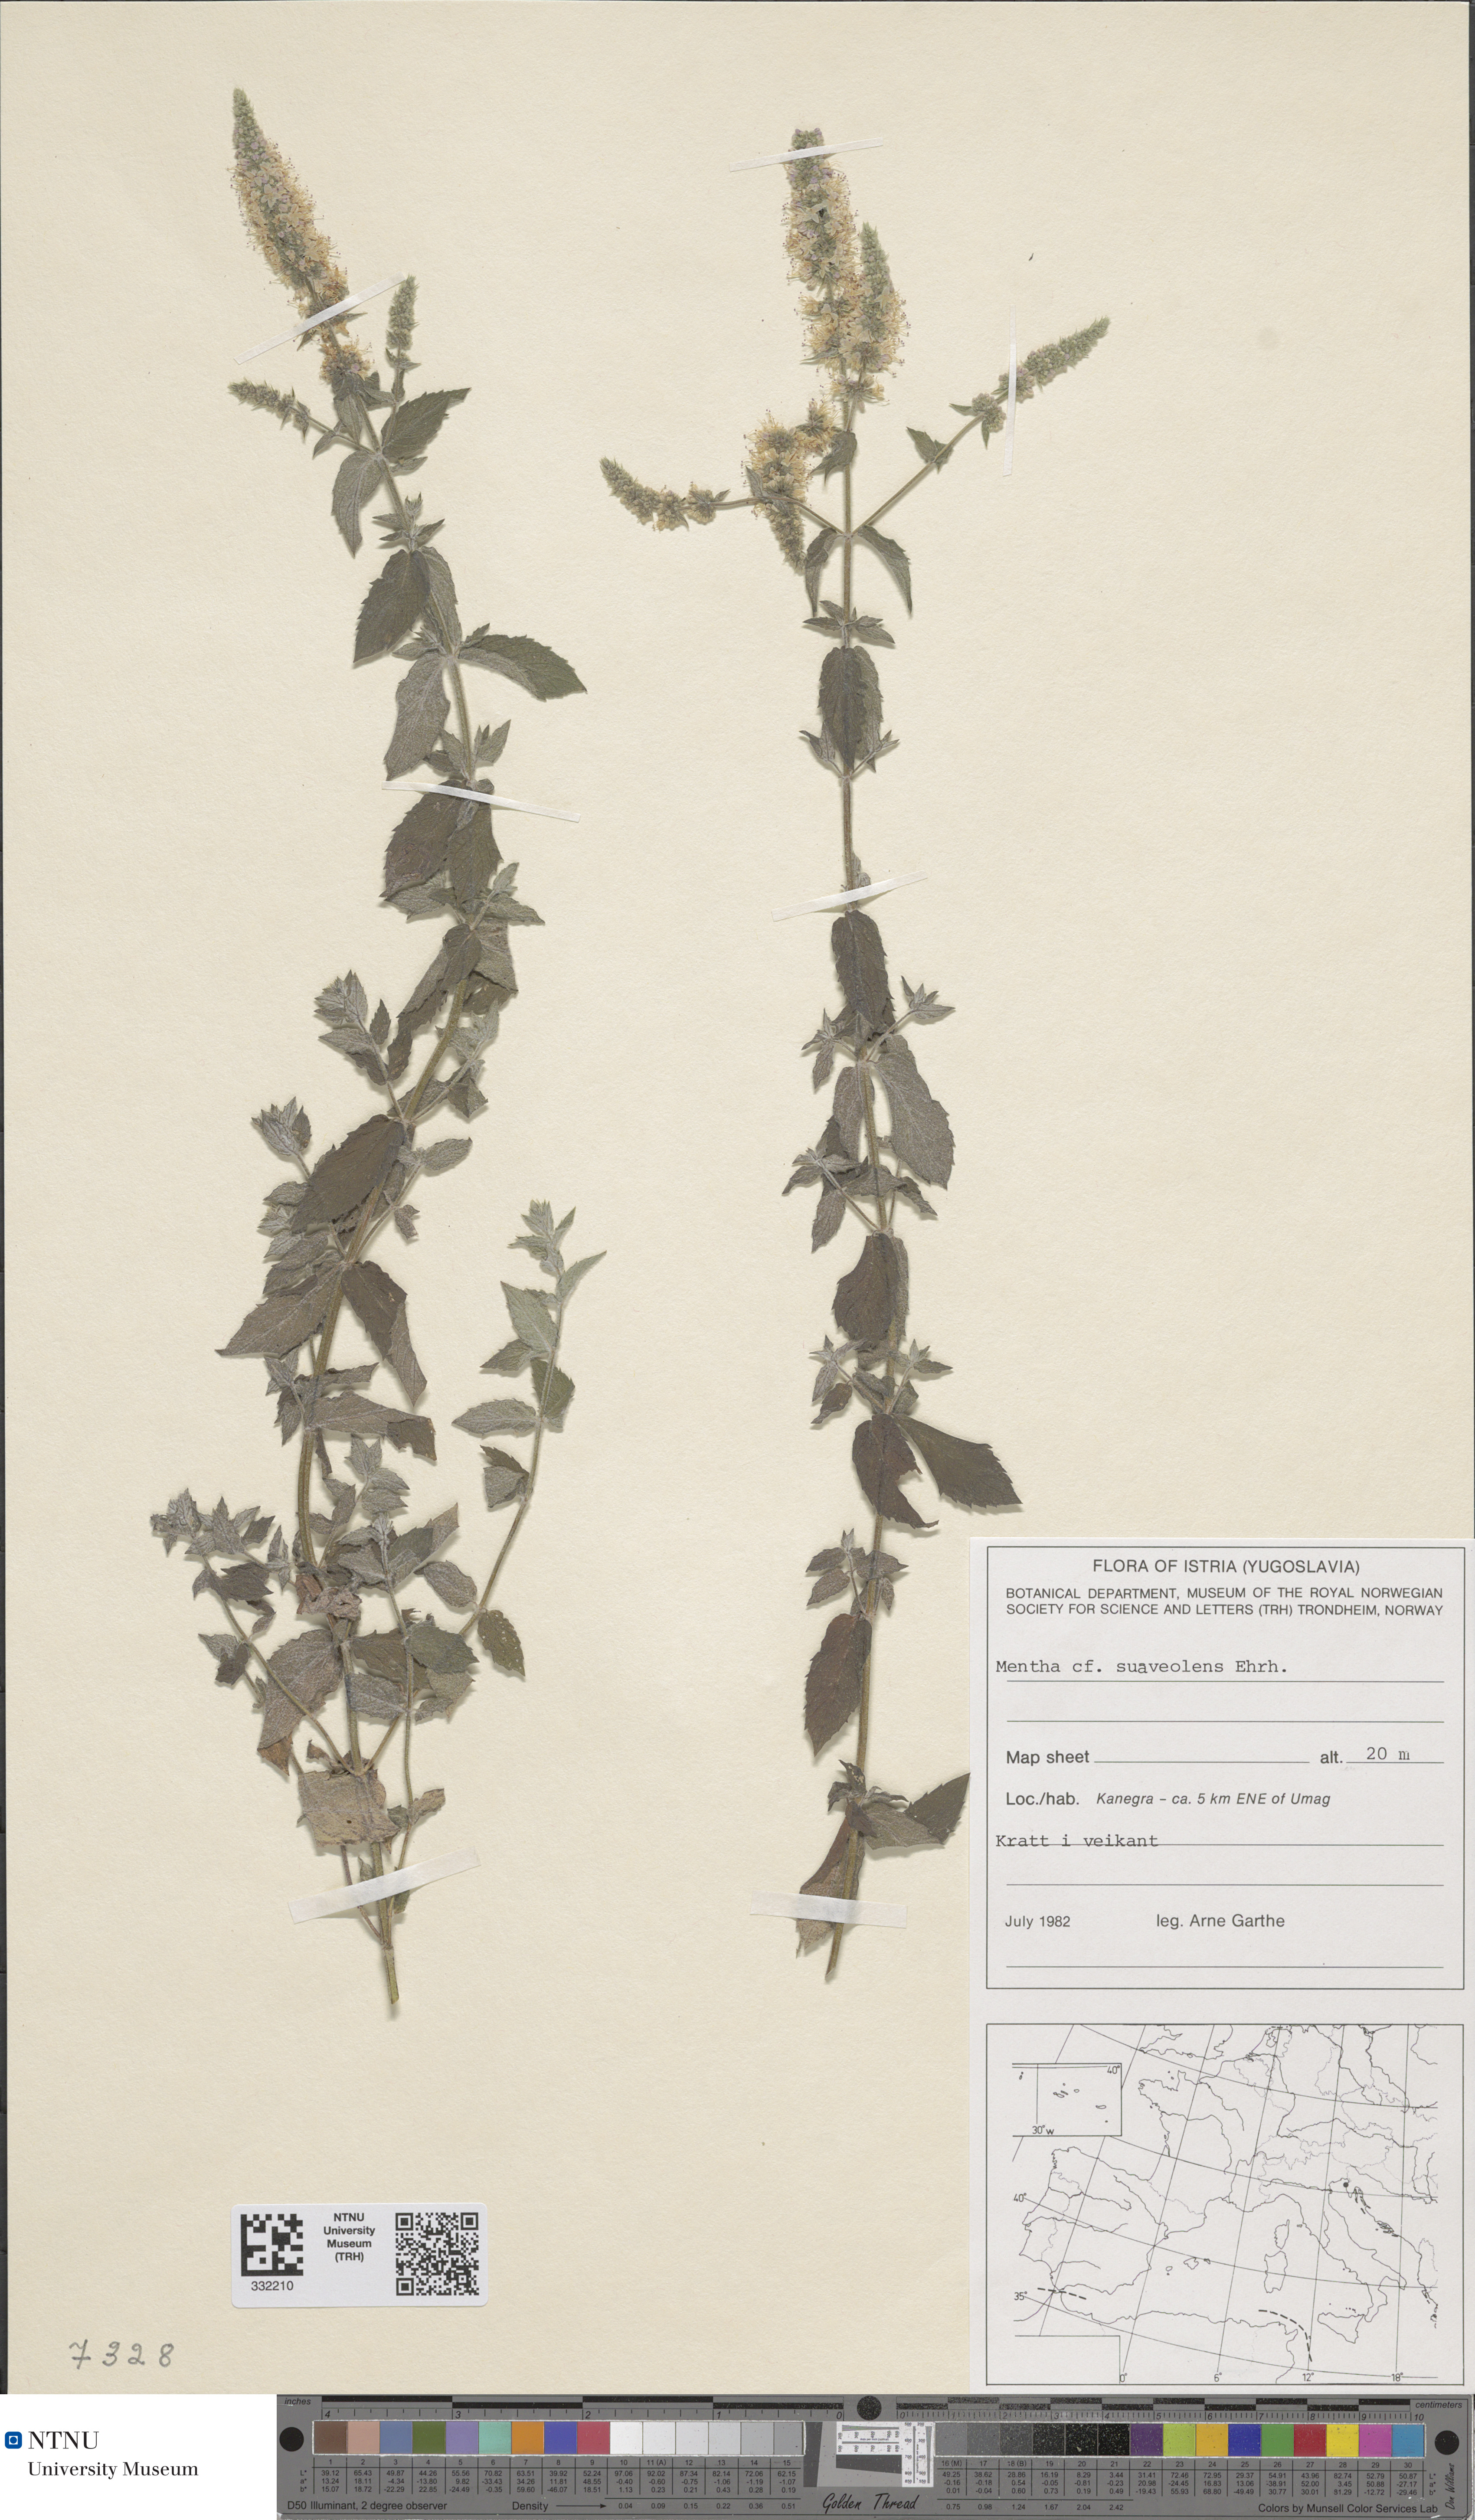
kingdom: Plantae
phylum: Tracheophyta
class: Magnoliopsida
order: Lamiales
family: Lamiaceae
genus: Mentha
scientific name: Mentha suaveolens
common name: Apple mint
